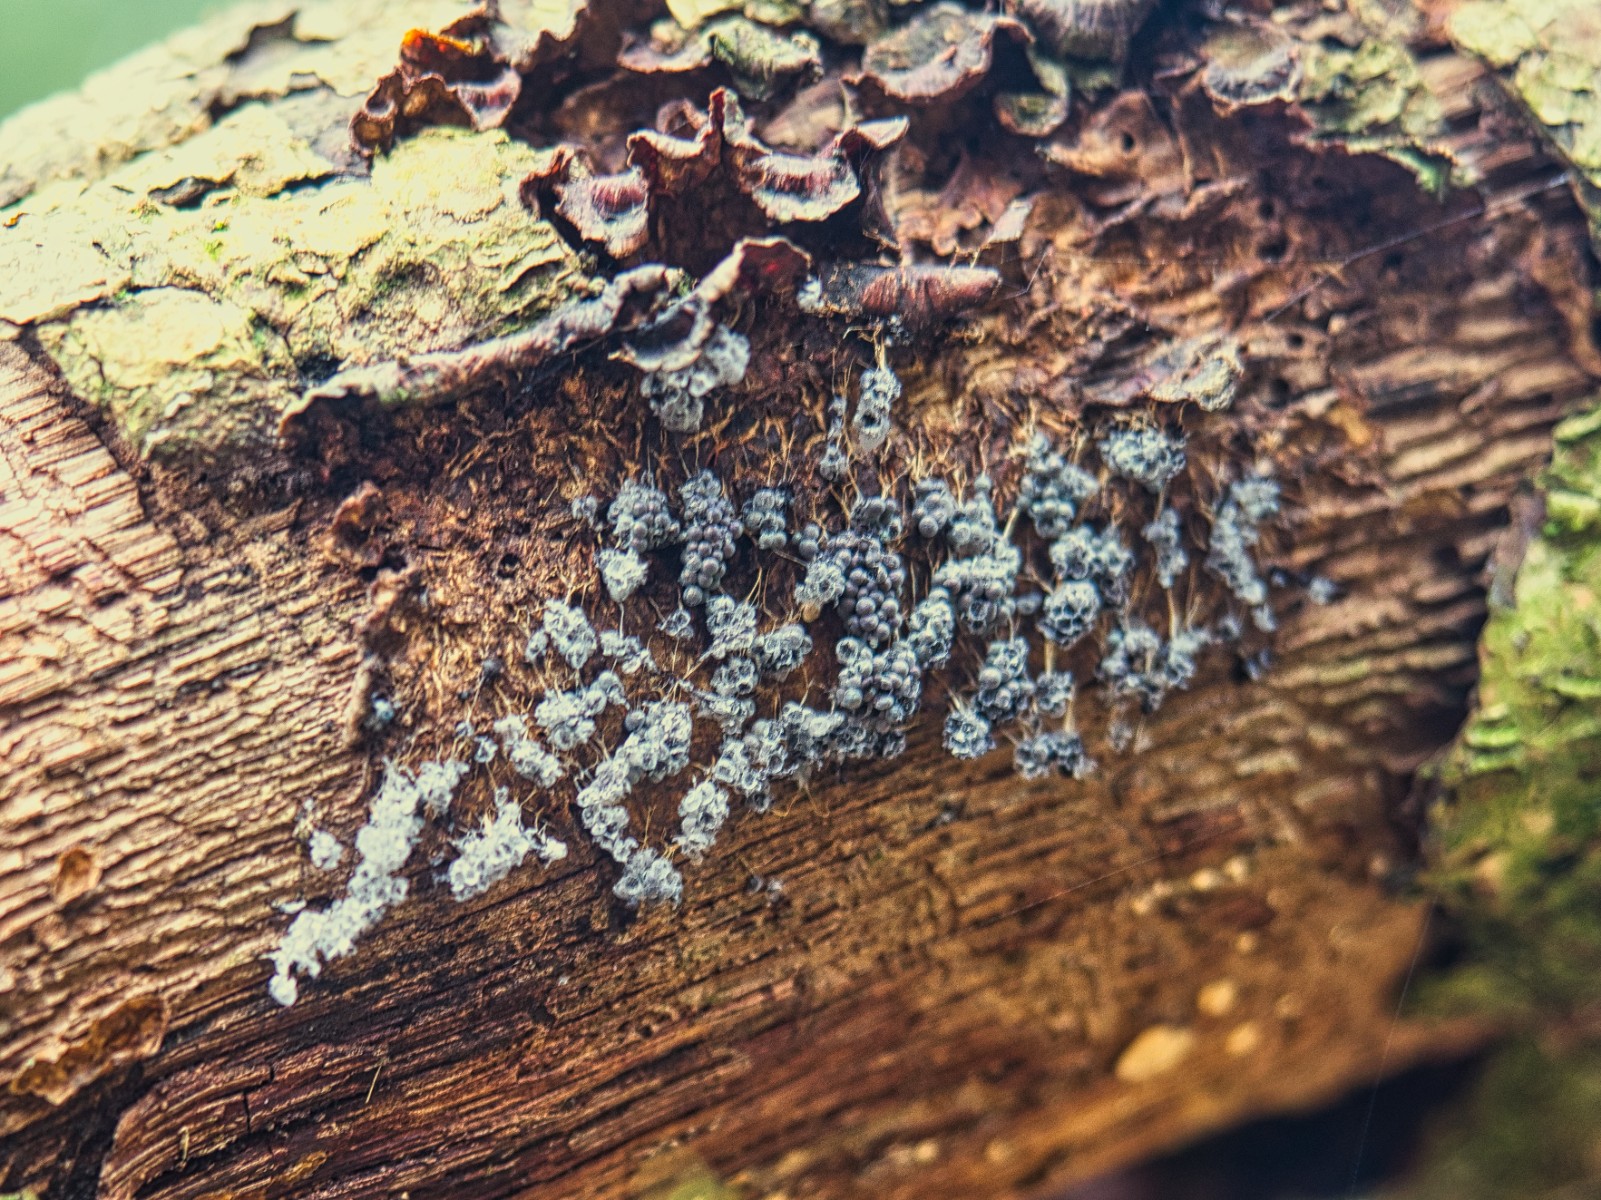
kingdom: Protozoa
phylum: Mycetozoa
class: Myxomycetes
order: Physarales
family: Physaraceae
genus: Badhamia
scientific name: Badhamia utricularis
